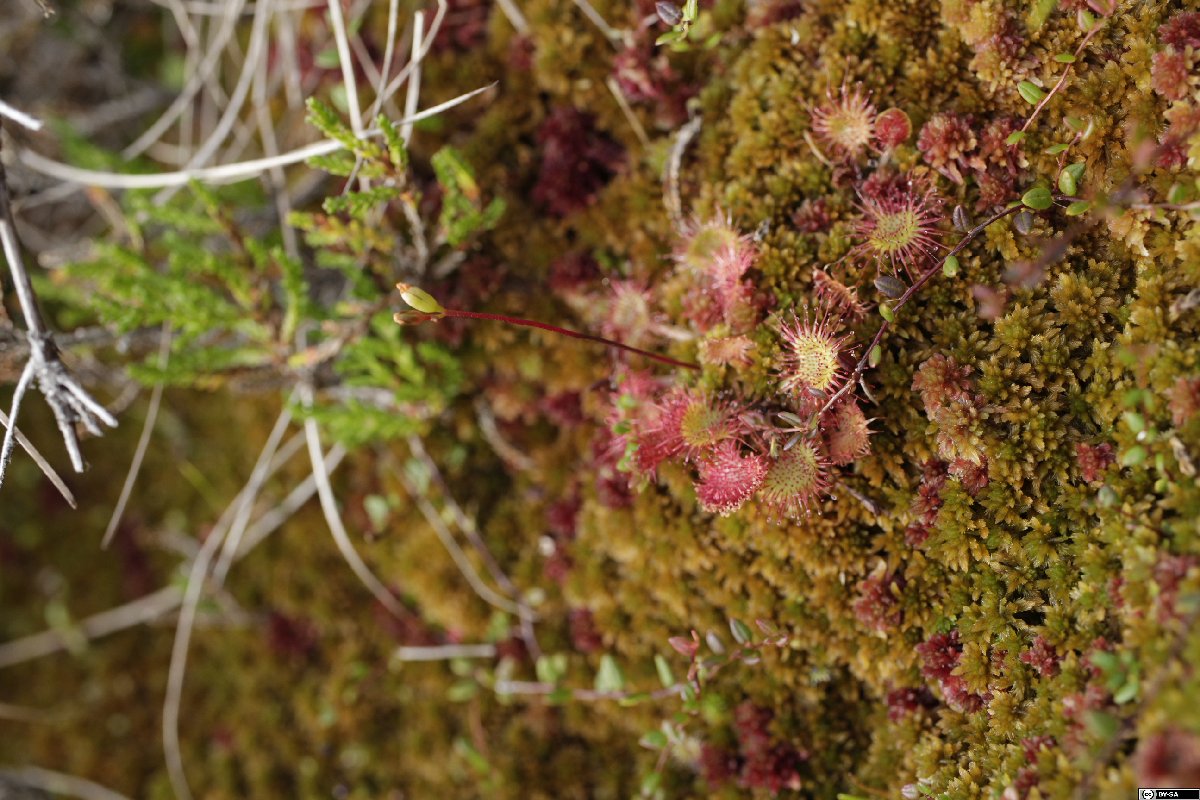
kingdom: Plantae
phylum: Tracheophyta
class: Magnoliopsida
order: Caryophyllales
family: Droseraceae
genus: Drosera
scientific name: Drosera rotundifolia
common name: Round-leaved sundew
